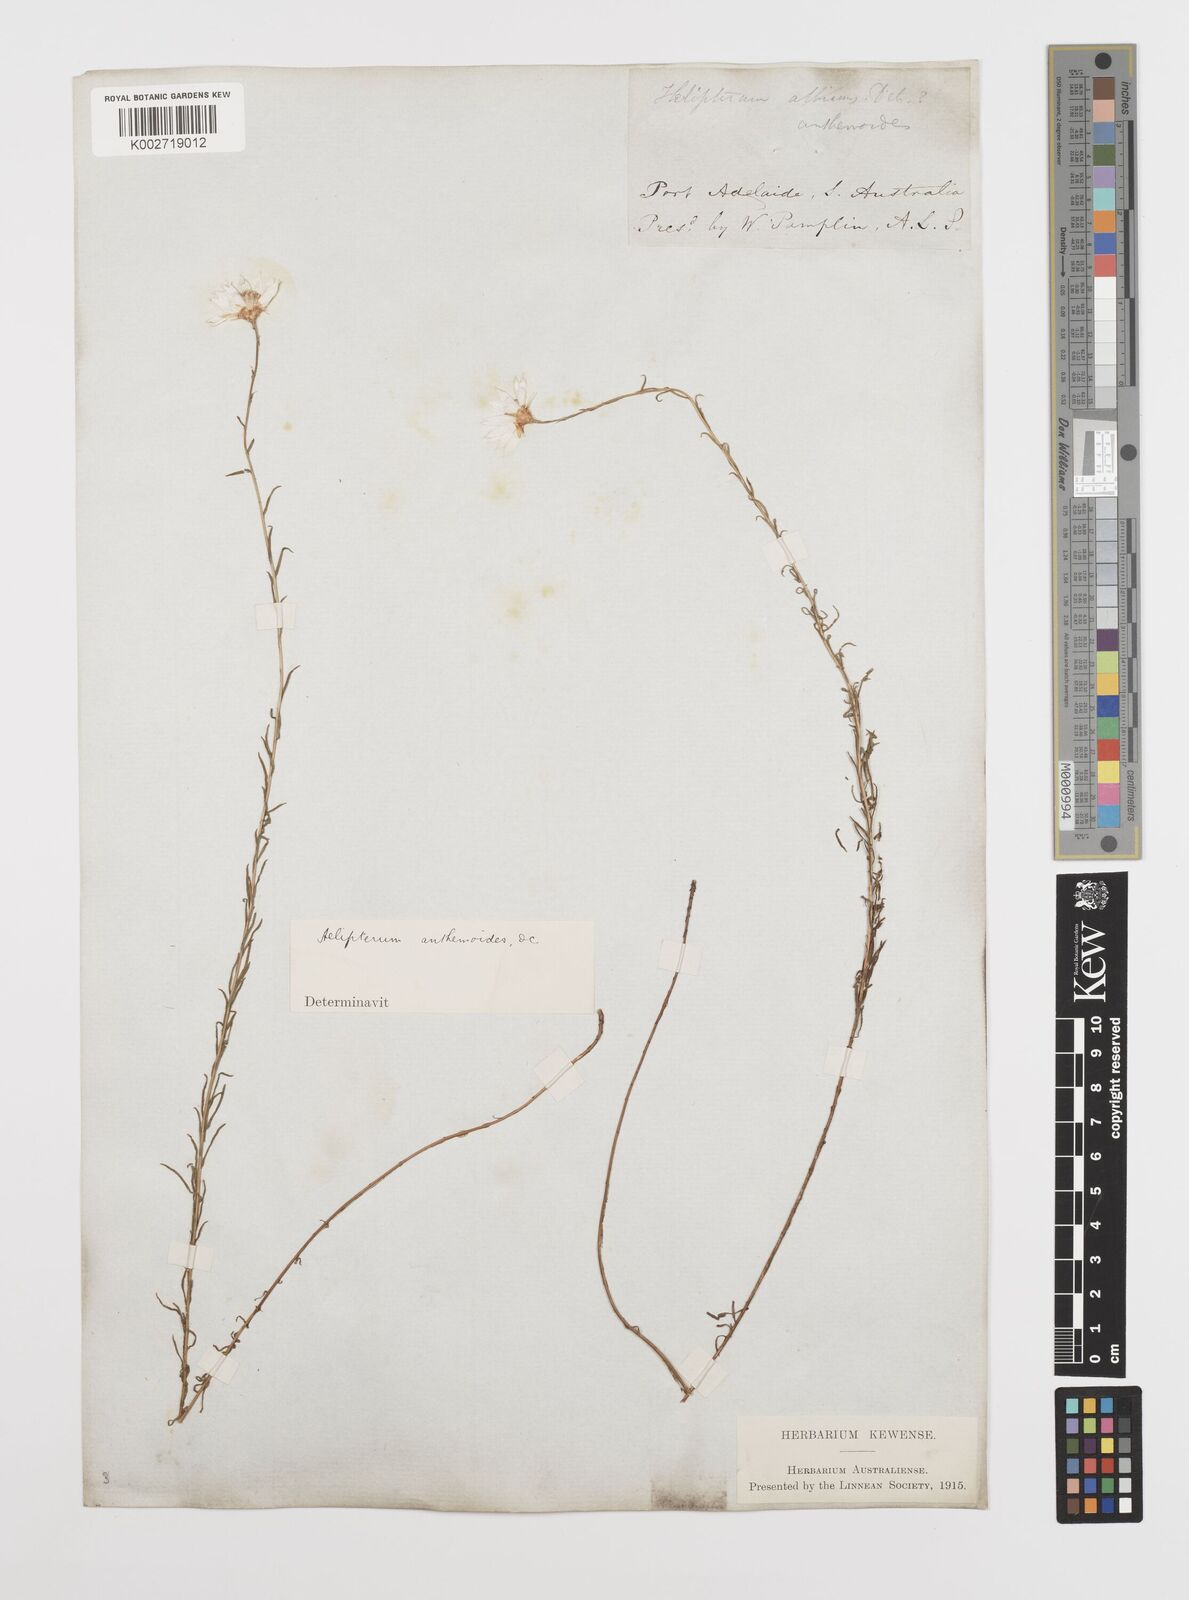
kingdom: Plantae
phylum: Tracheophyta
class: Magnoliopsida
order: Asterales
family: Asteraceae
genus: Rhodanthe
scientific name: Rhodanthe anthemoides
